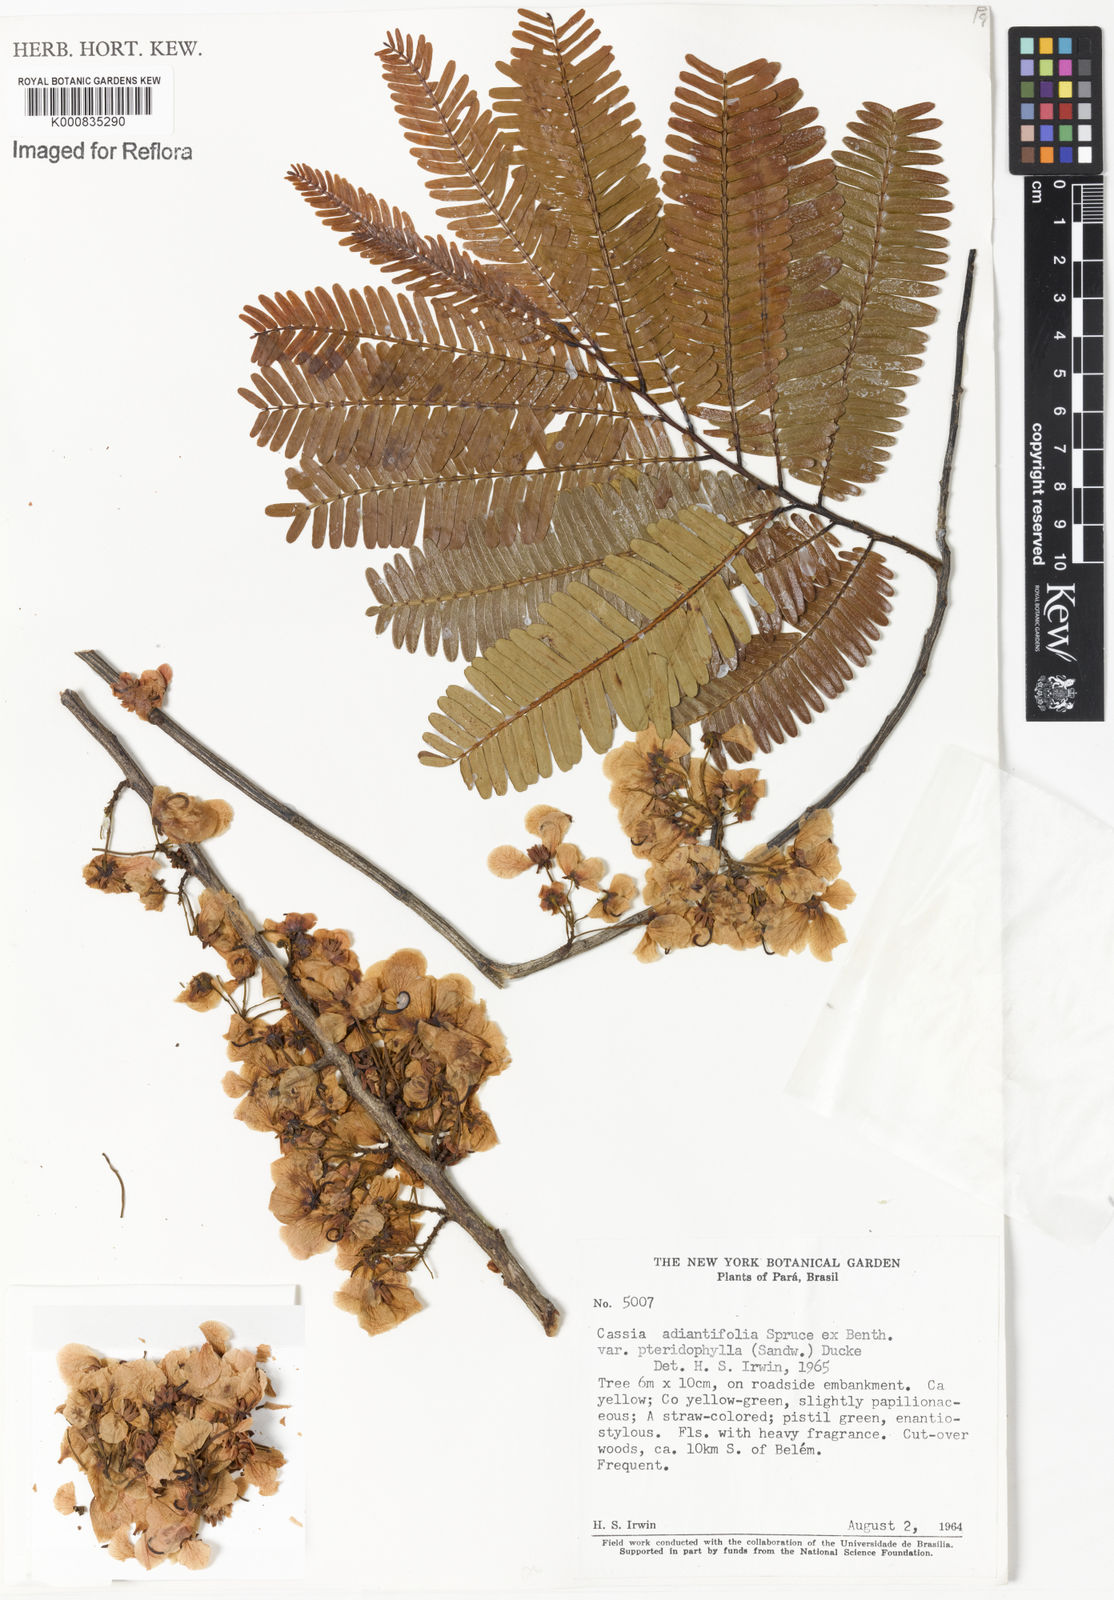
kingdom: Plantae
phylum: Tracheophyta
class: Magnoliopsida
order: Fabales
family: Fabaceae
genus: Chamaecrista
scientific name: Chamaecrista adiantifolia
